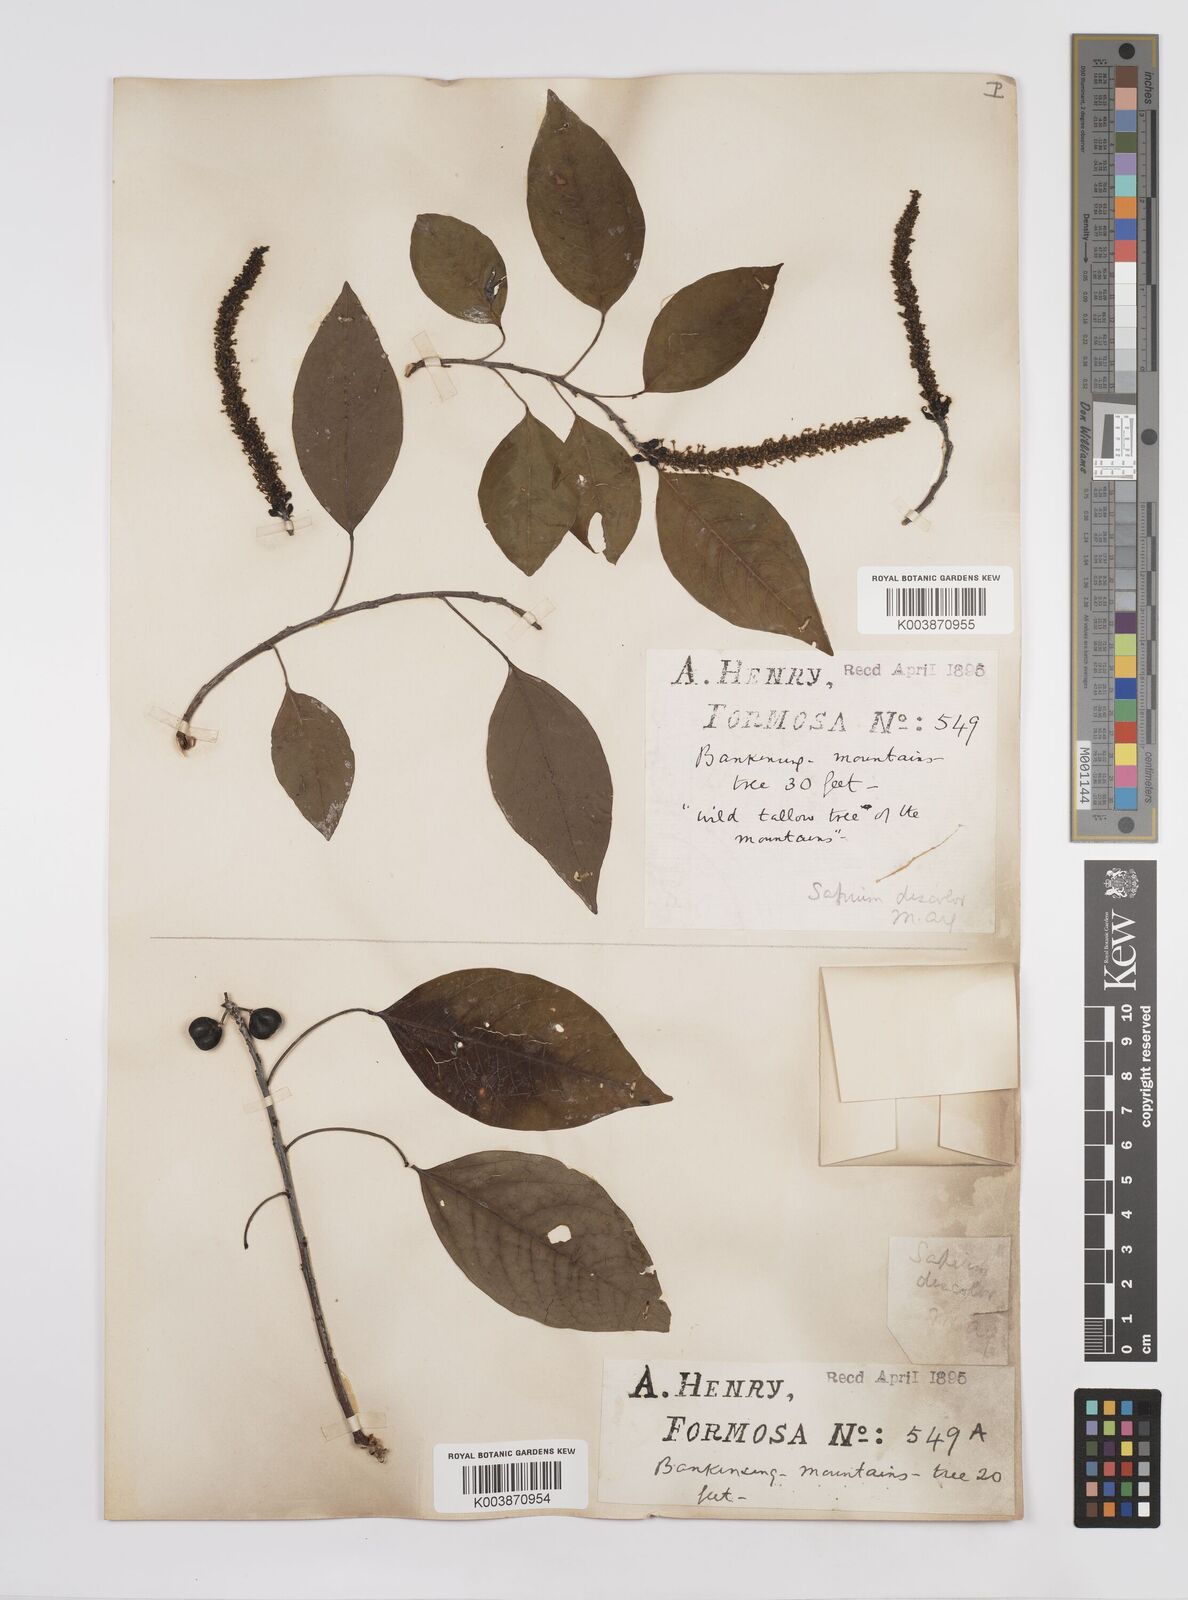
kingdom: Plantae
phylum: Tracheophyta
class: Magnoliopsida
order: Malpighiales
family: Euphorbiaceae
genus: Triadica
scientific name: Triadica cochinchinensis
